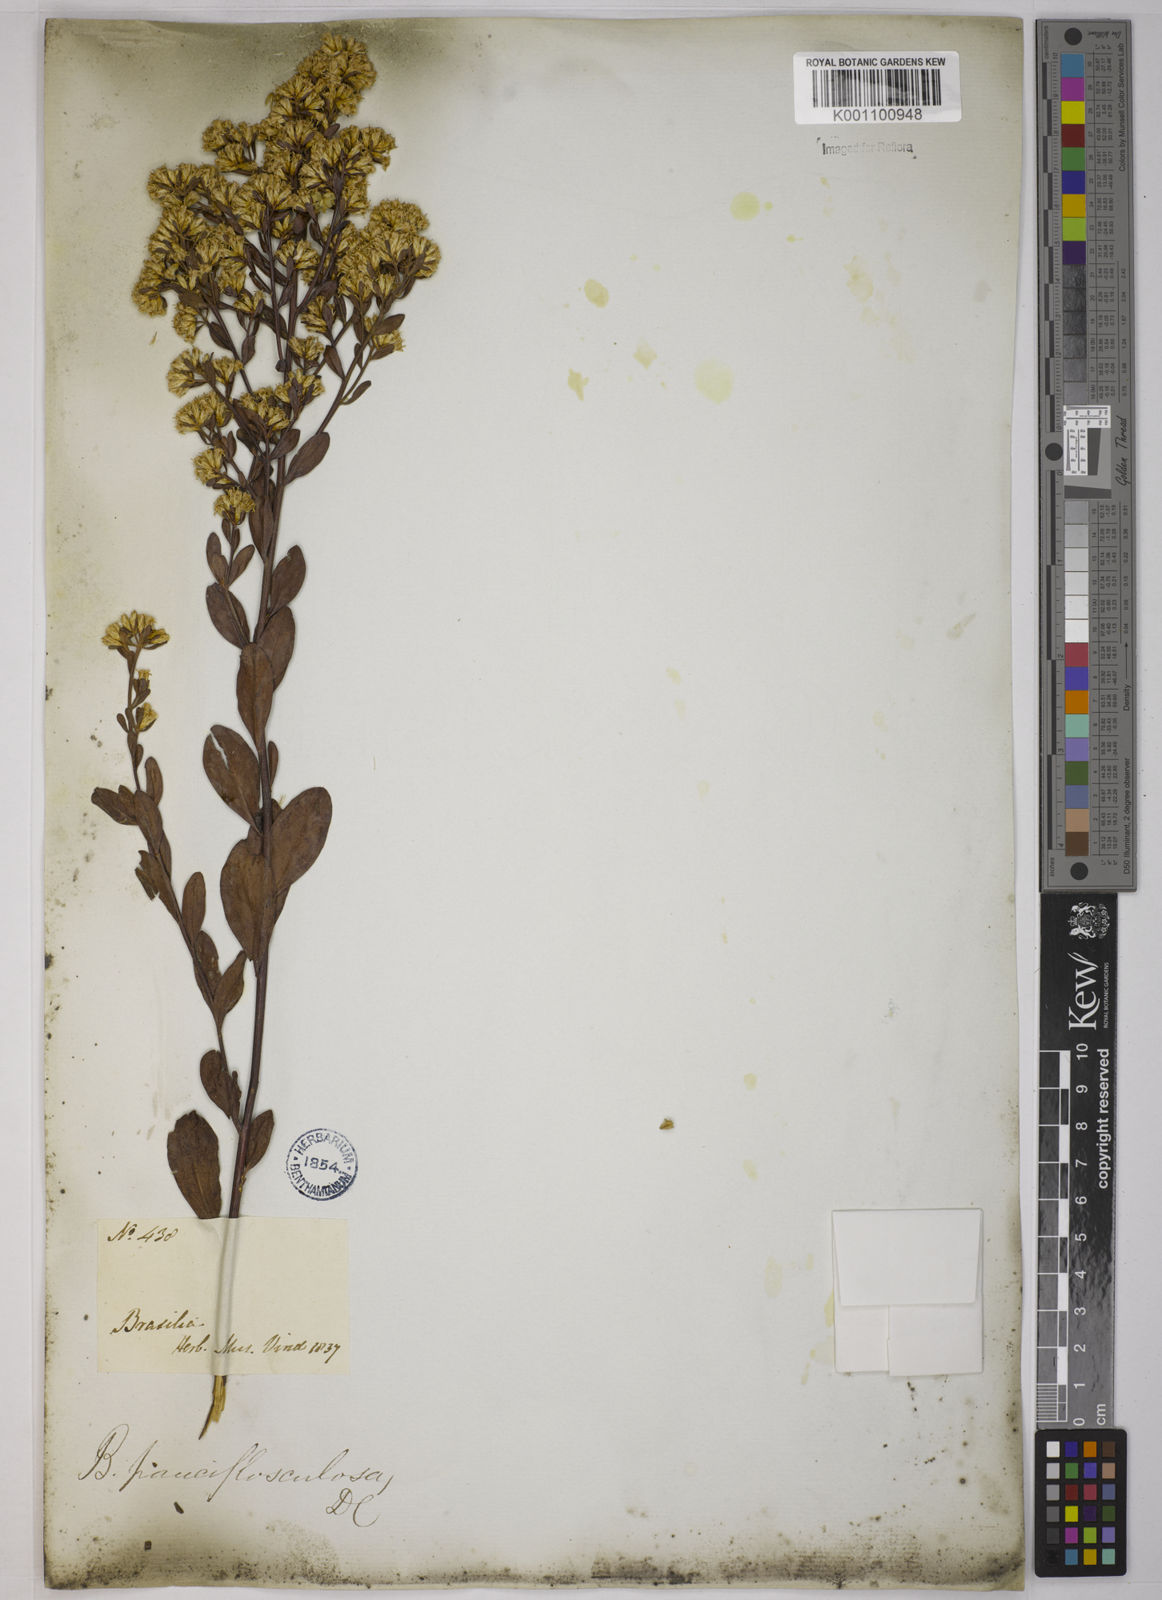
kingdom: Plantae
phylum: Tracheophyta
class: Magnoliopsida
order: Asterales
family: Asteraceae
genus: Baccharis
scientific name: Baccharis pauciflosculosa
